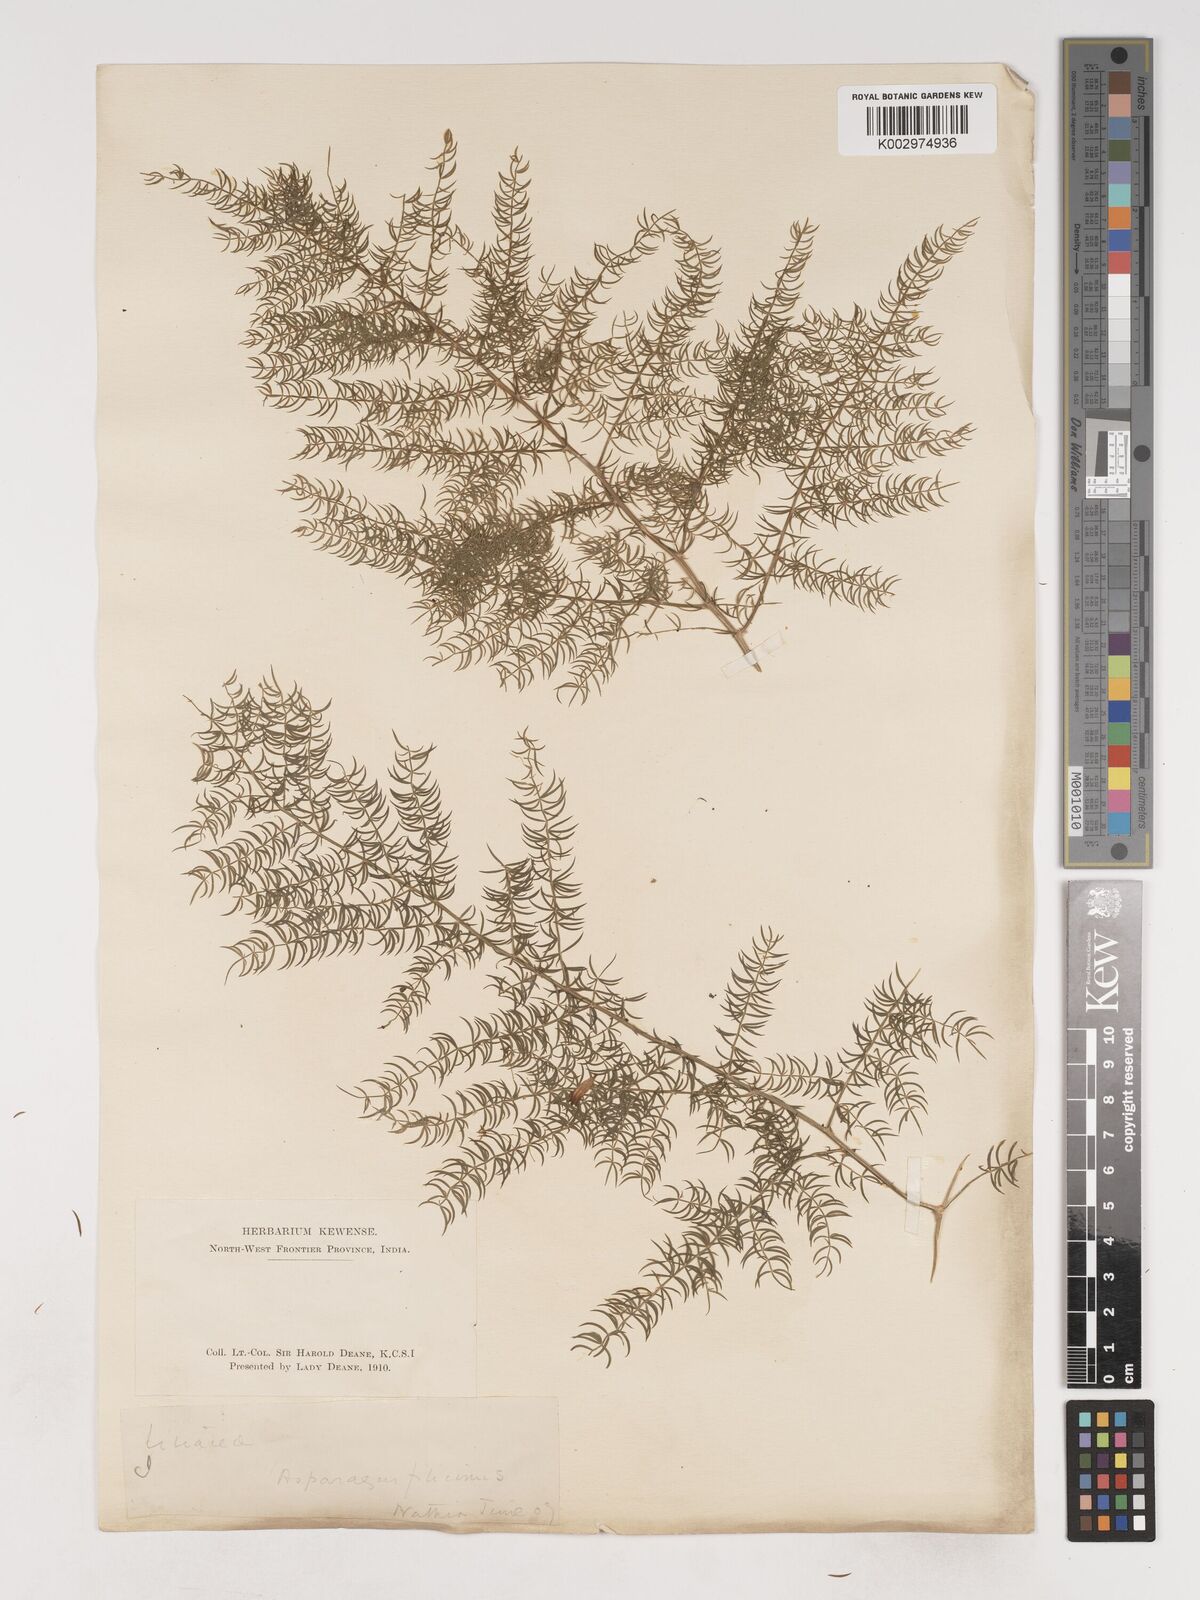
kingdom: Plantae
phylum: Tracheophyta
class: Liliopsida
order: Asparagales
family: Asparagaceae
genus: Asparagus
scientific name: Asparagus filicinus
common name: Fern asparagus
